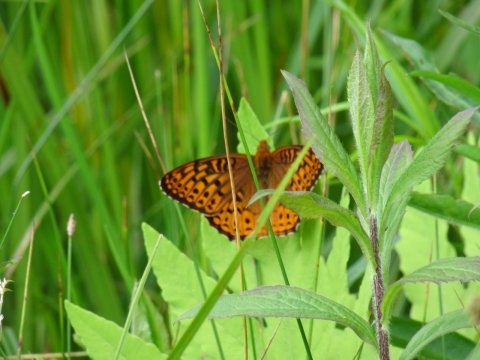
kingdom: Animalia
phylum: Arthropoda
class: Insecta
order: Lepidoptera
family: Nymphalidae
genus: Speyeria
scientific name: Speyeria atlantis
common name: Atlantis Fritillary
